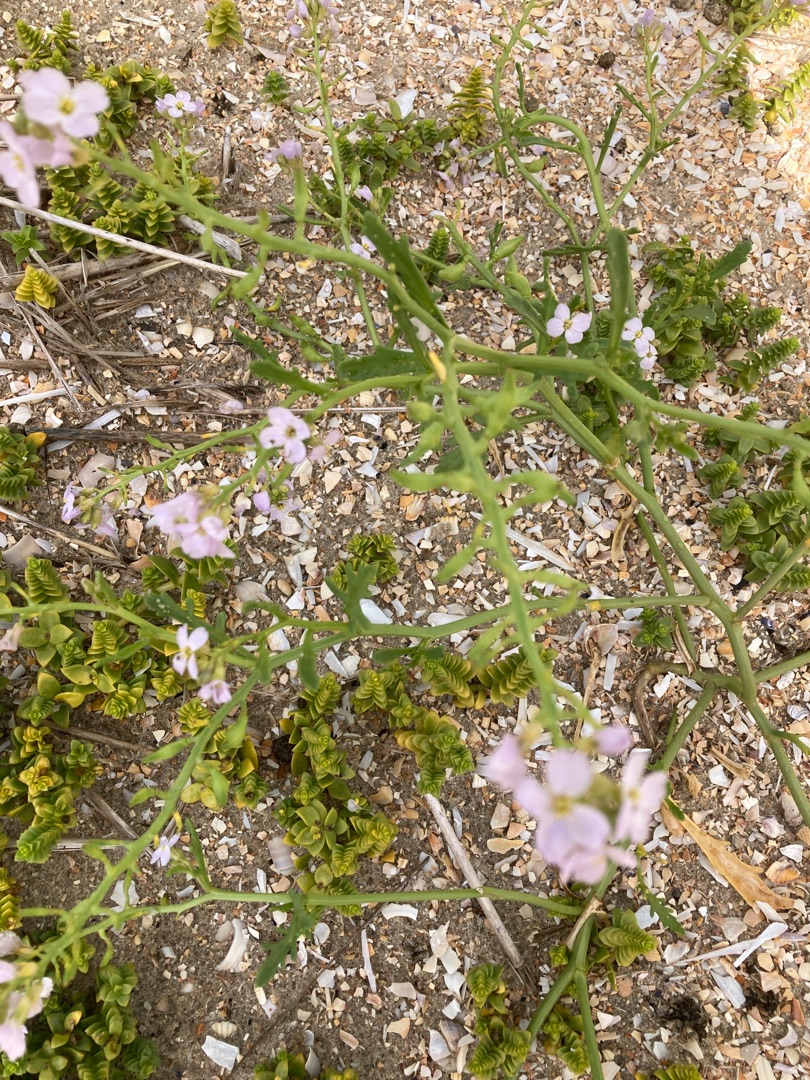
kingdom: Plantae
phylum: Tracheophyta
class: Magnoliopsida
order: Brassicales
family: Brassicaceae
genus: Cakile
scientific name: Cakile maritima
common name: Strandsennep
